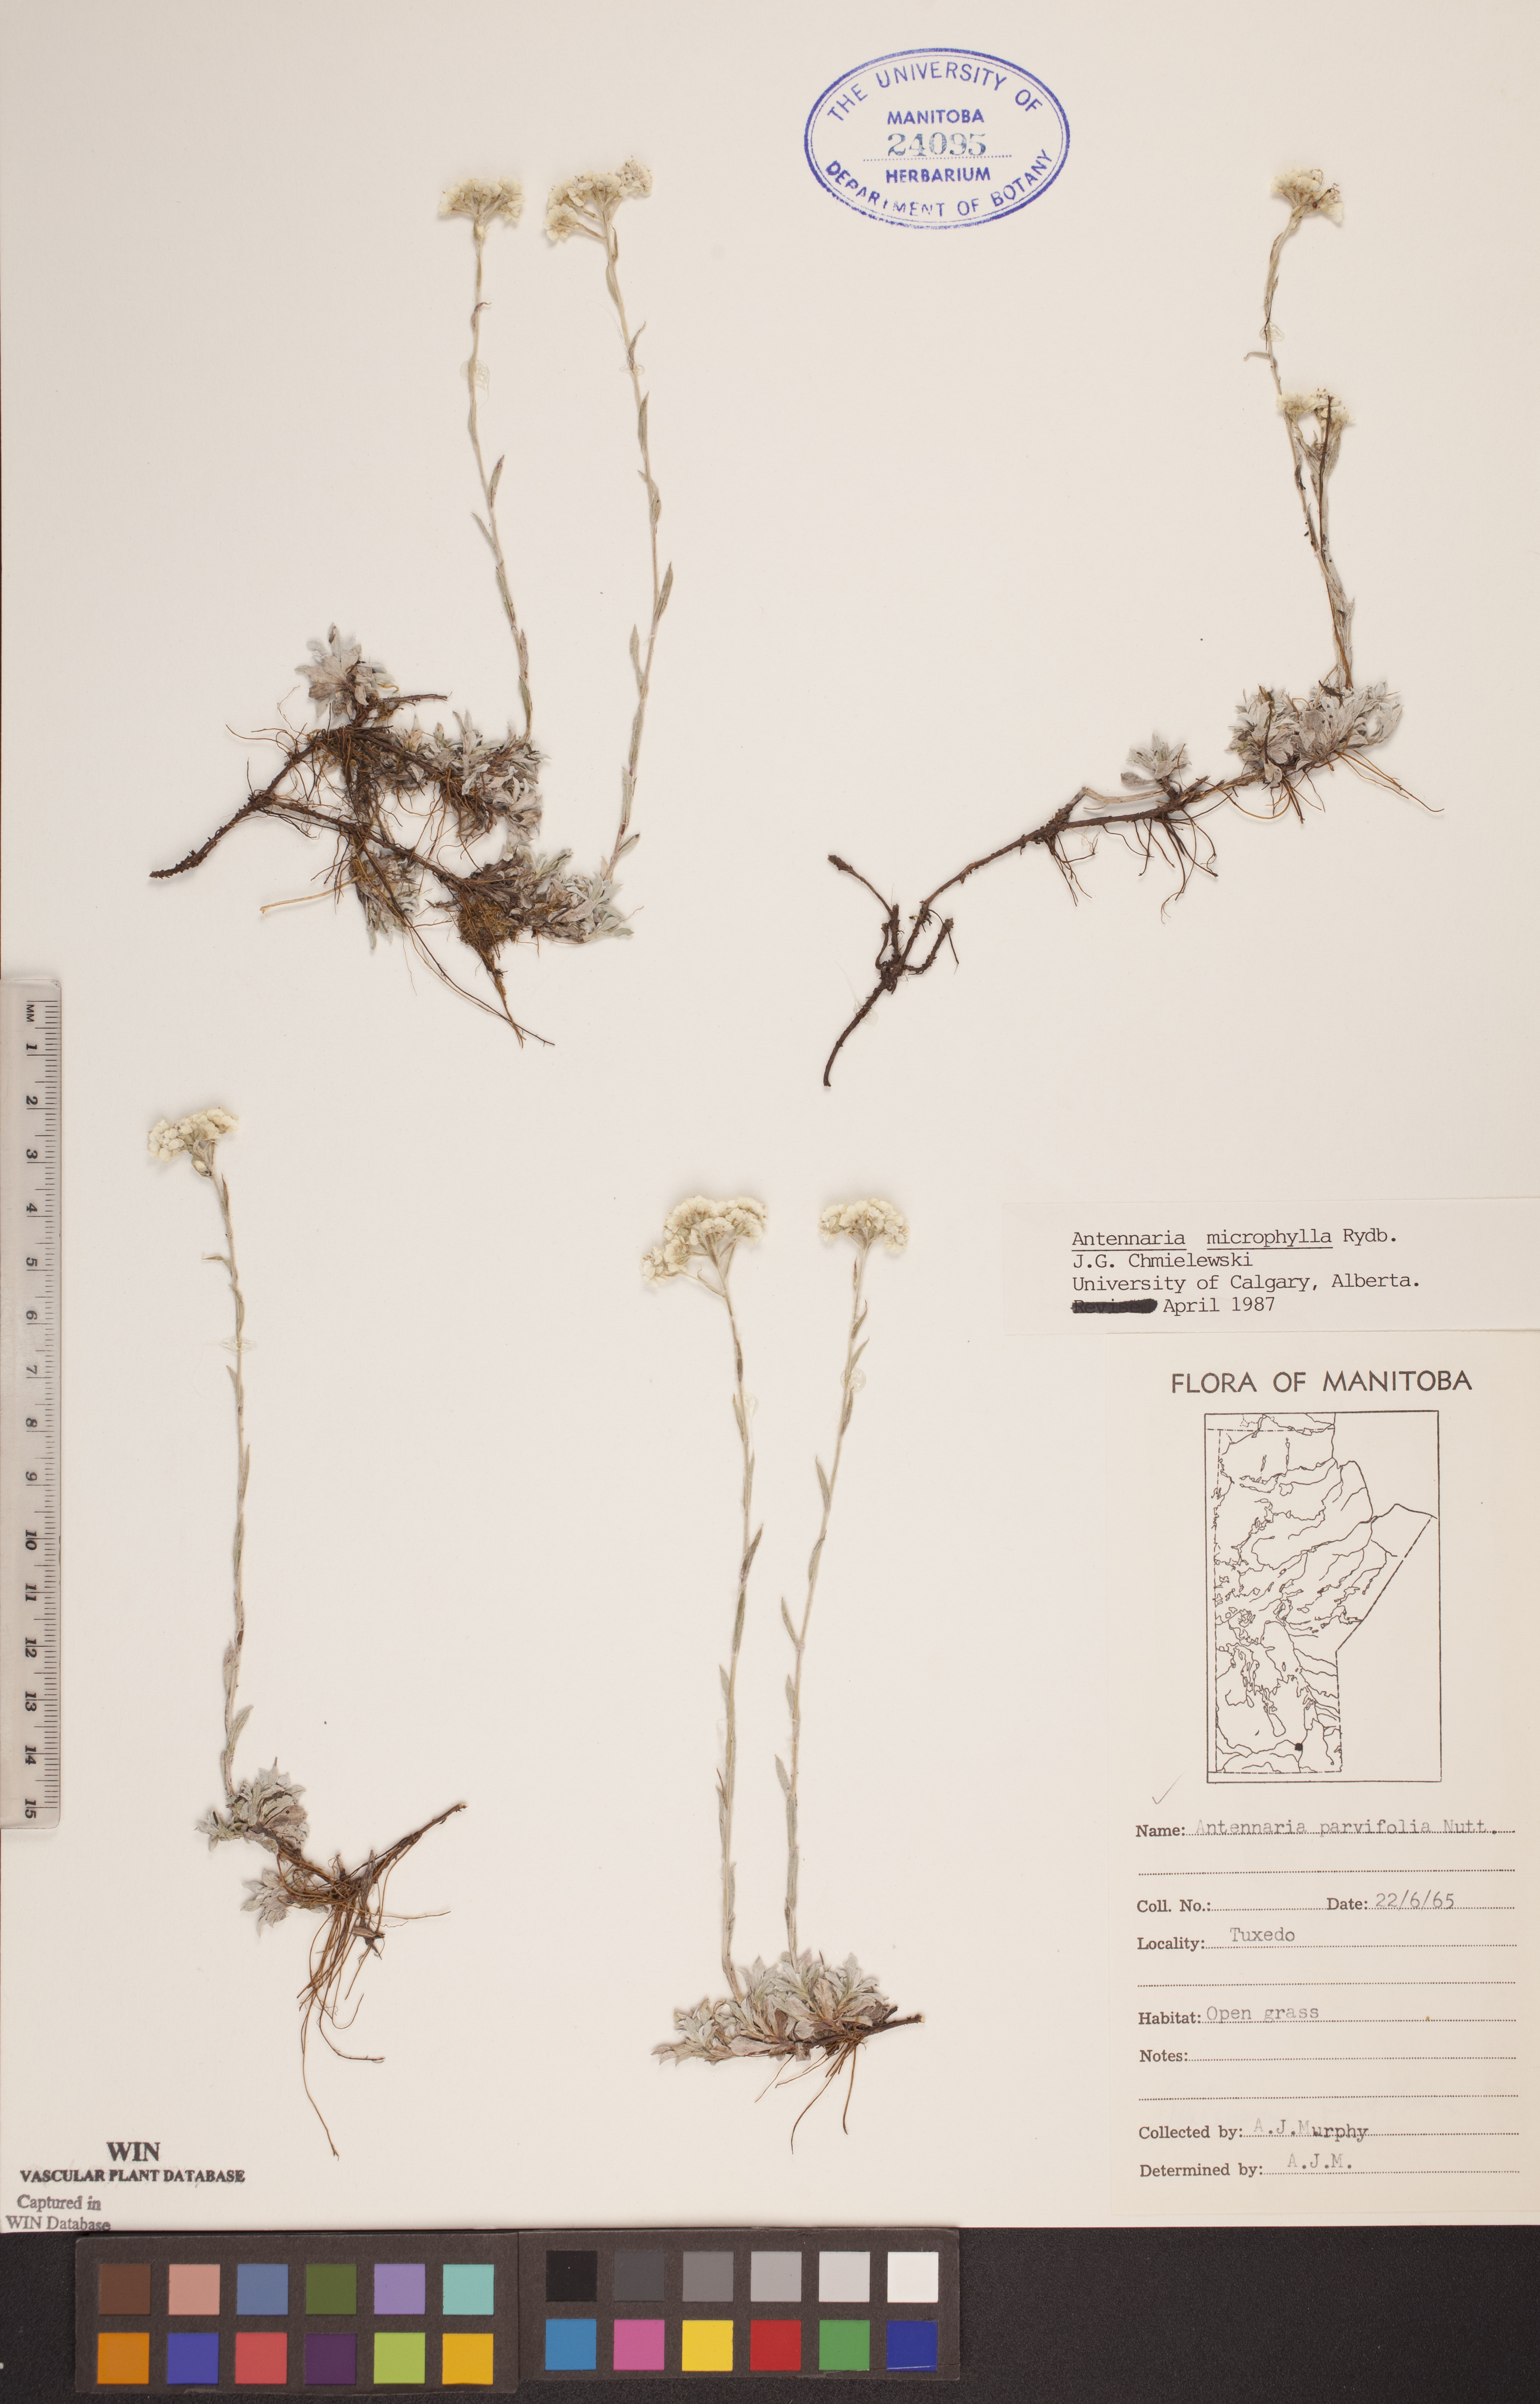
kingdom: Plantae
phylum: Tracheophyta
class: Magnoliopsida
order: Asterales
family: Asteraceae
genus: Antennaria
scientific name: Antennaria microphylla
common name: Littleleaf pussytoes
